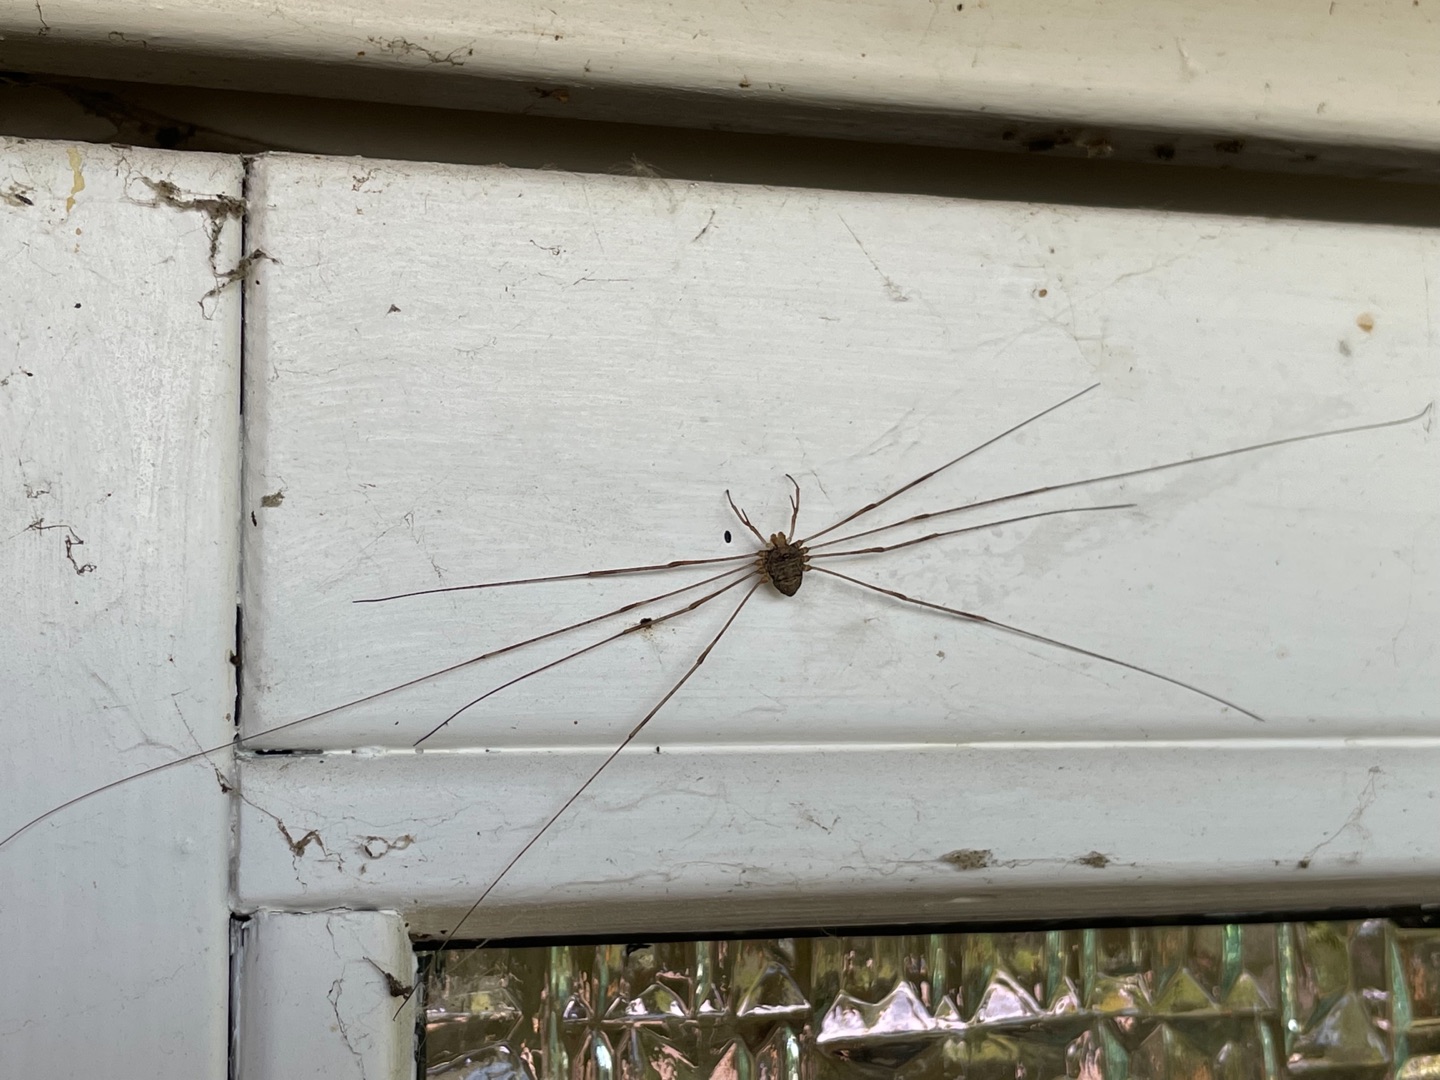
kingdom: Animalia
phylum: Arthropoda
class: Arachnida
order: Opiliones
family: Phalangiidae
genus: Dicranopalpus
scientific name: Dicranopalpus ramosus
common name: Gaffelmejer
